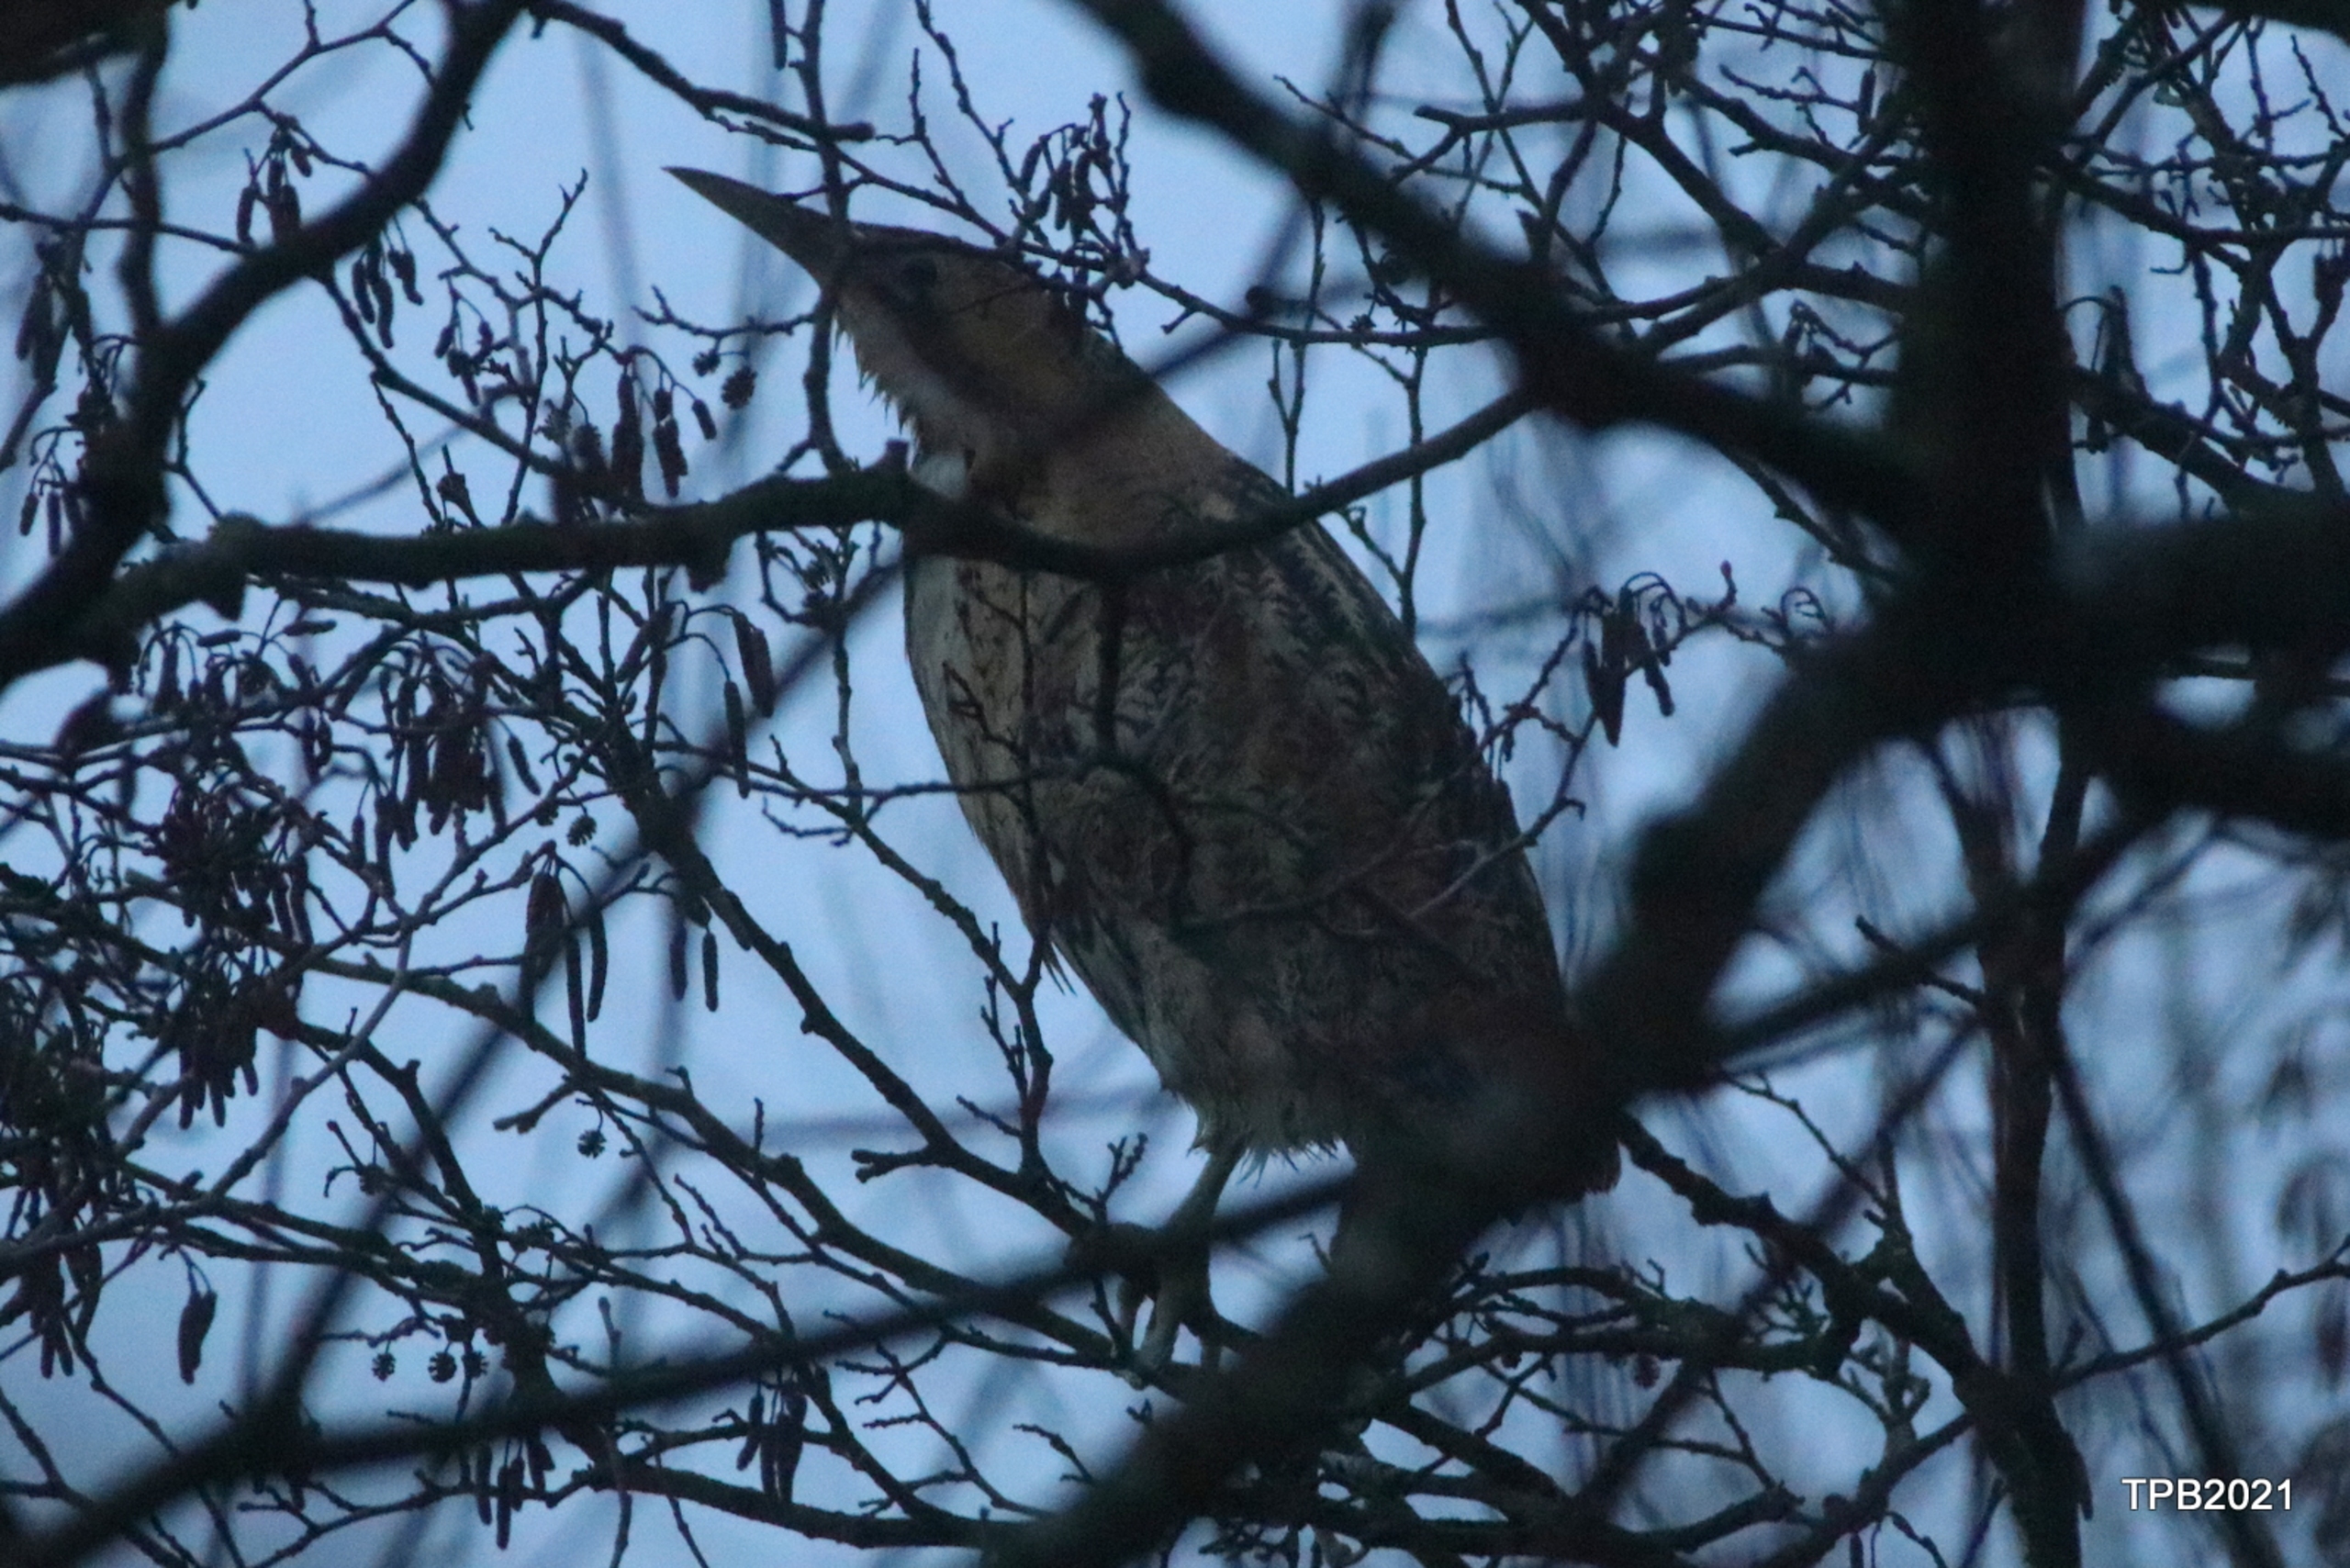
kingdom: Animalia
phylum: Chordata
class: Aves
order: Pelecaniformes
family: Ardeidae
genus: Botaurus
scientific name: Botaurus stellaris
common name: Rørdrum
